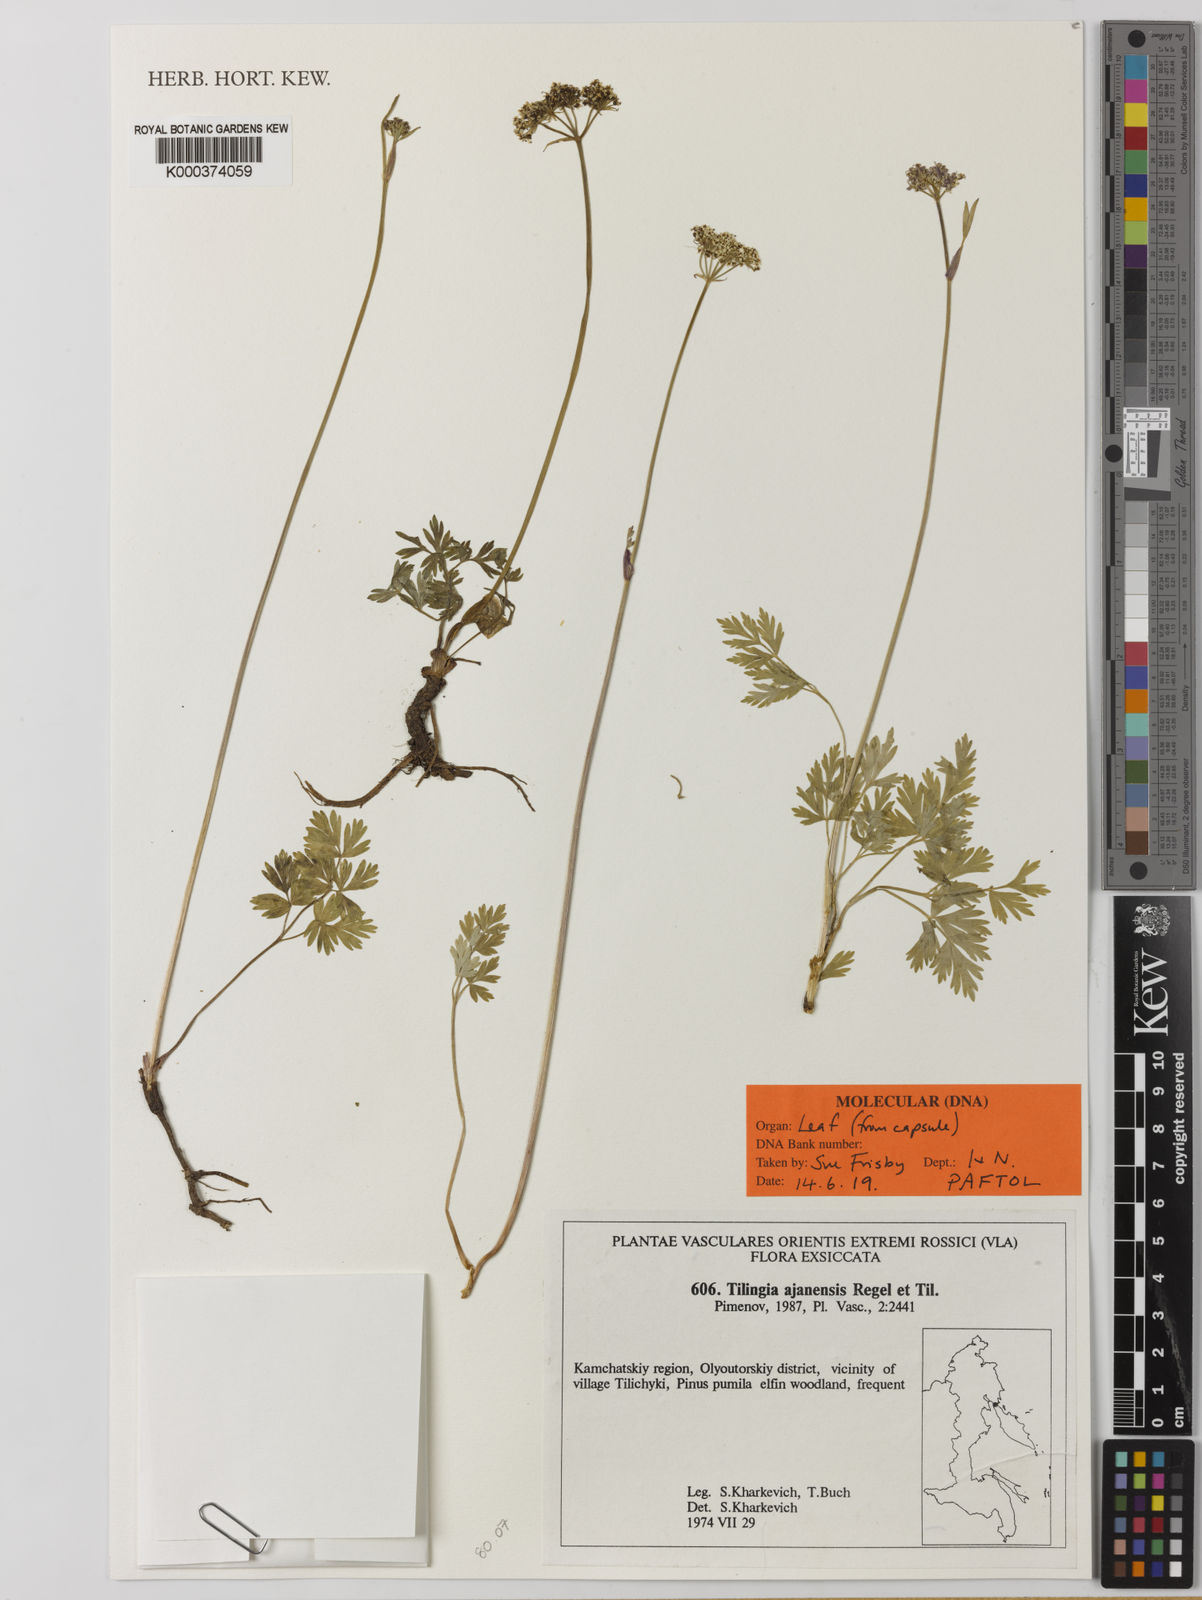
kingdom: Plantae
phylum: Tracheophyta
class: Magnoliopsida
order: Apiales
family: Apiaceae
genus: Tilingia
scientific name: Tilingia ajanensis
